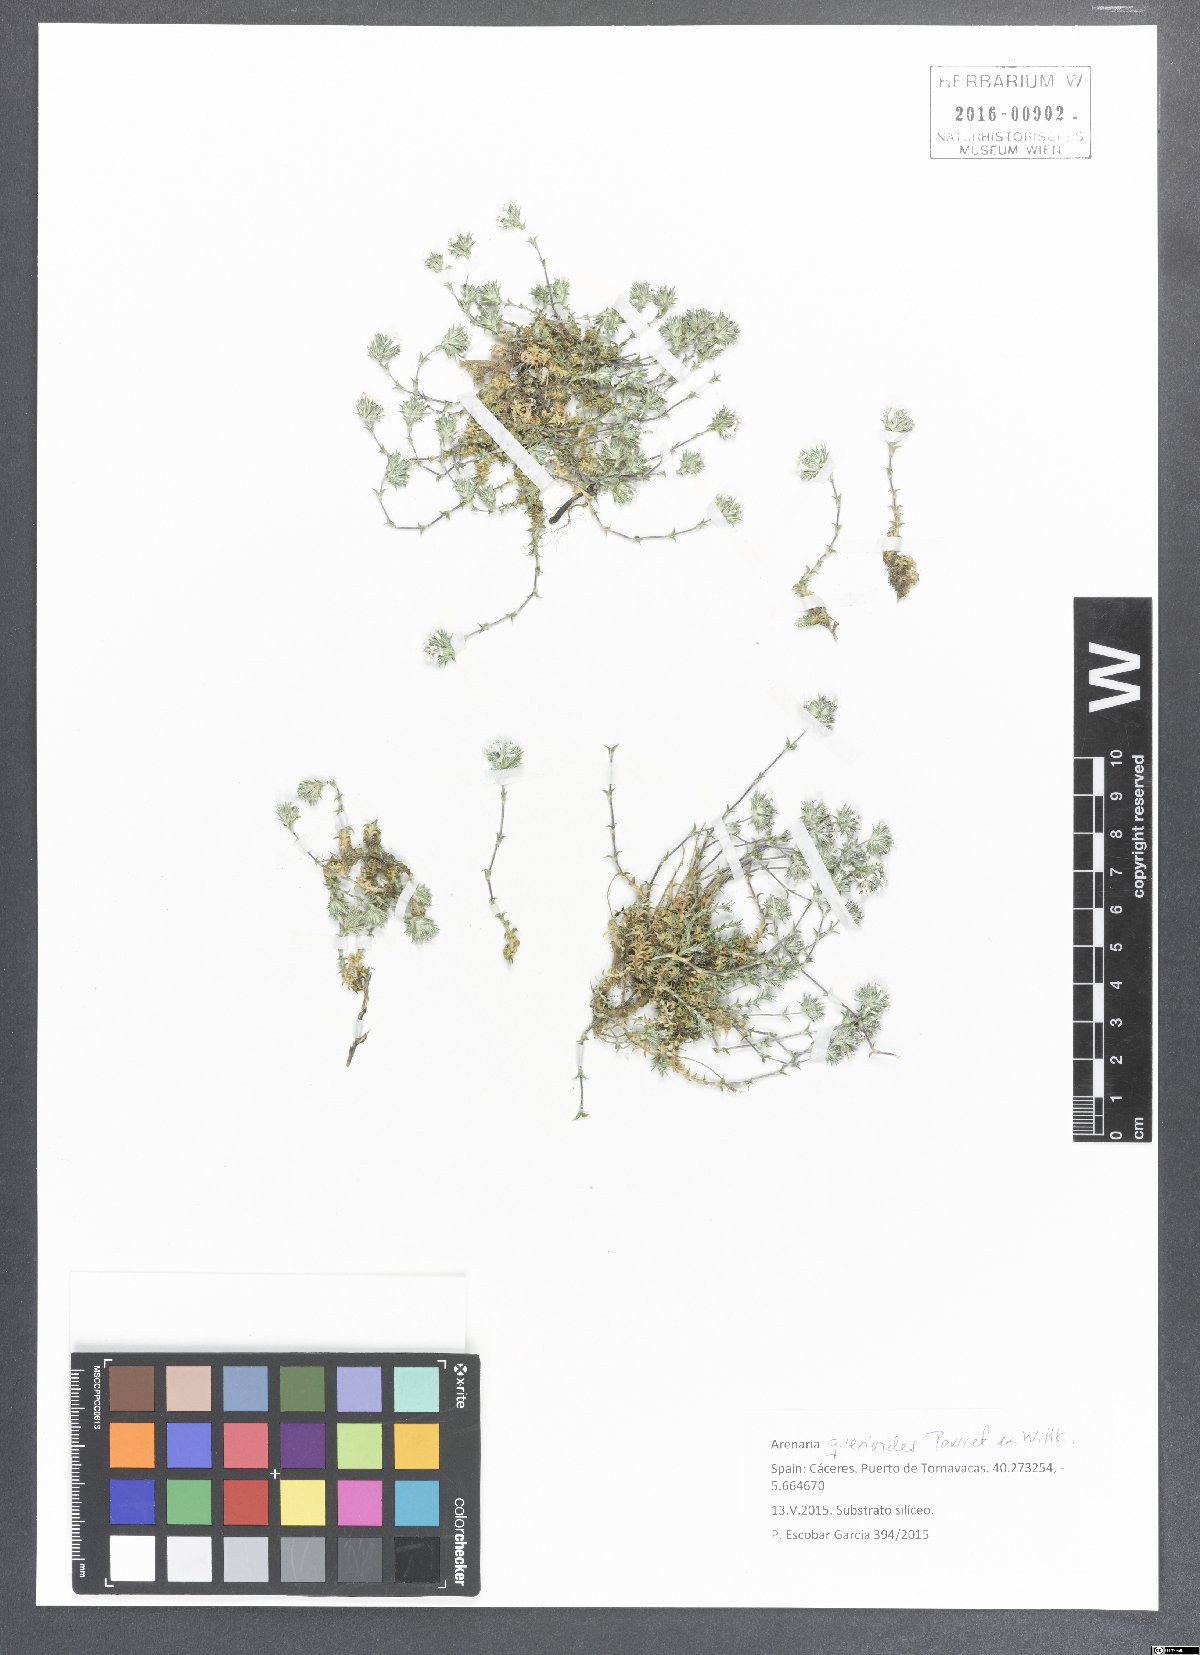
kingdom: Plantae
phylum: Tracheophyta
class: Magnoliopsida
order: Caryophyllales
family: Caryophyllaceae
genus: Arenaria
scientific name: Arenaria querioides
